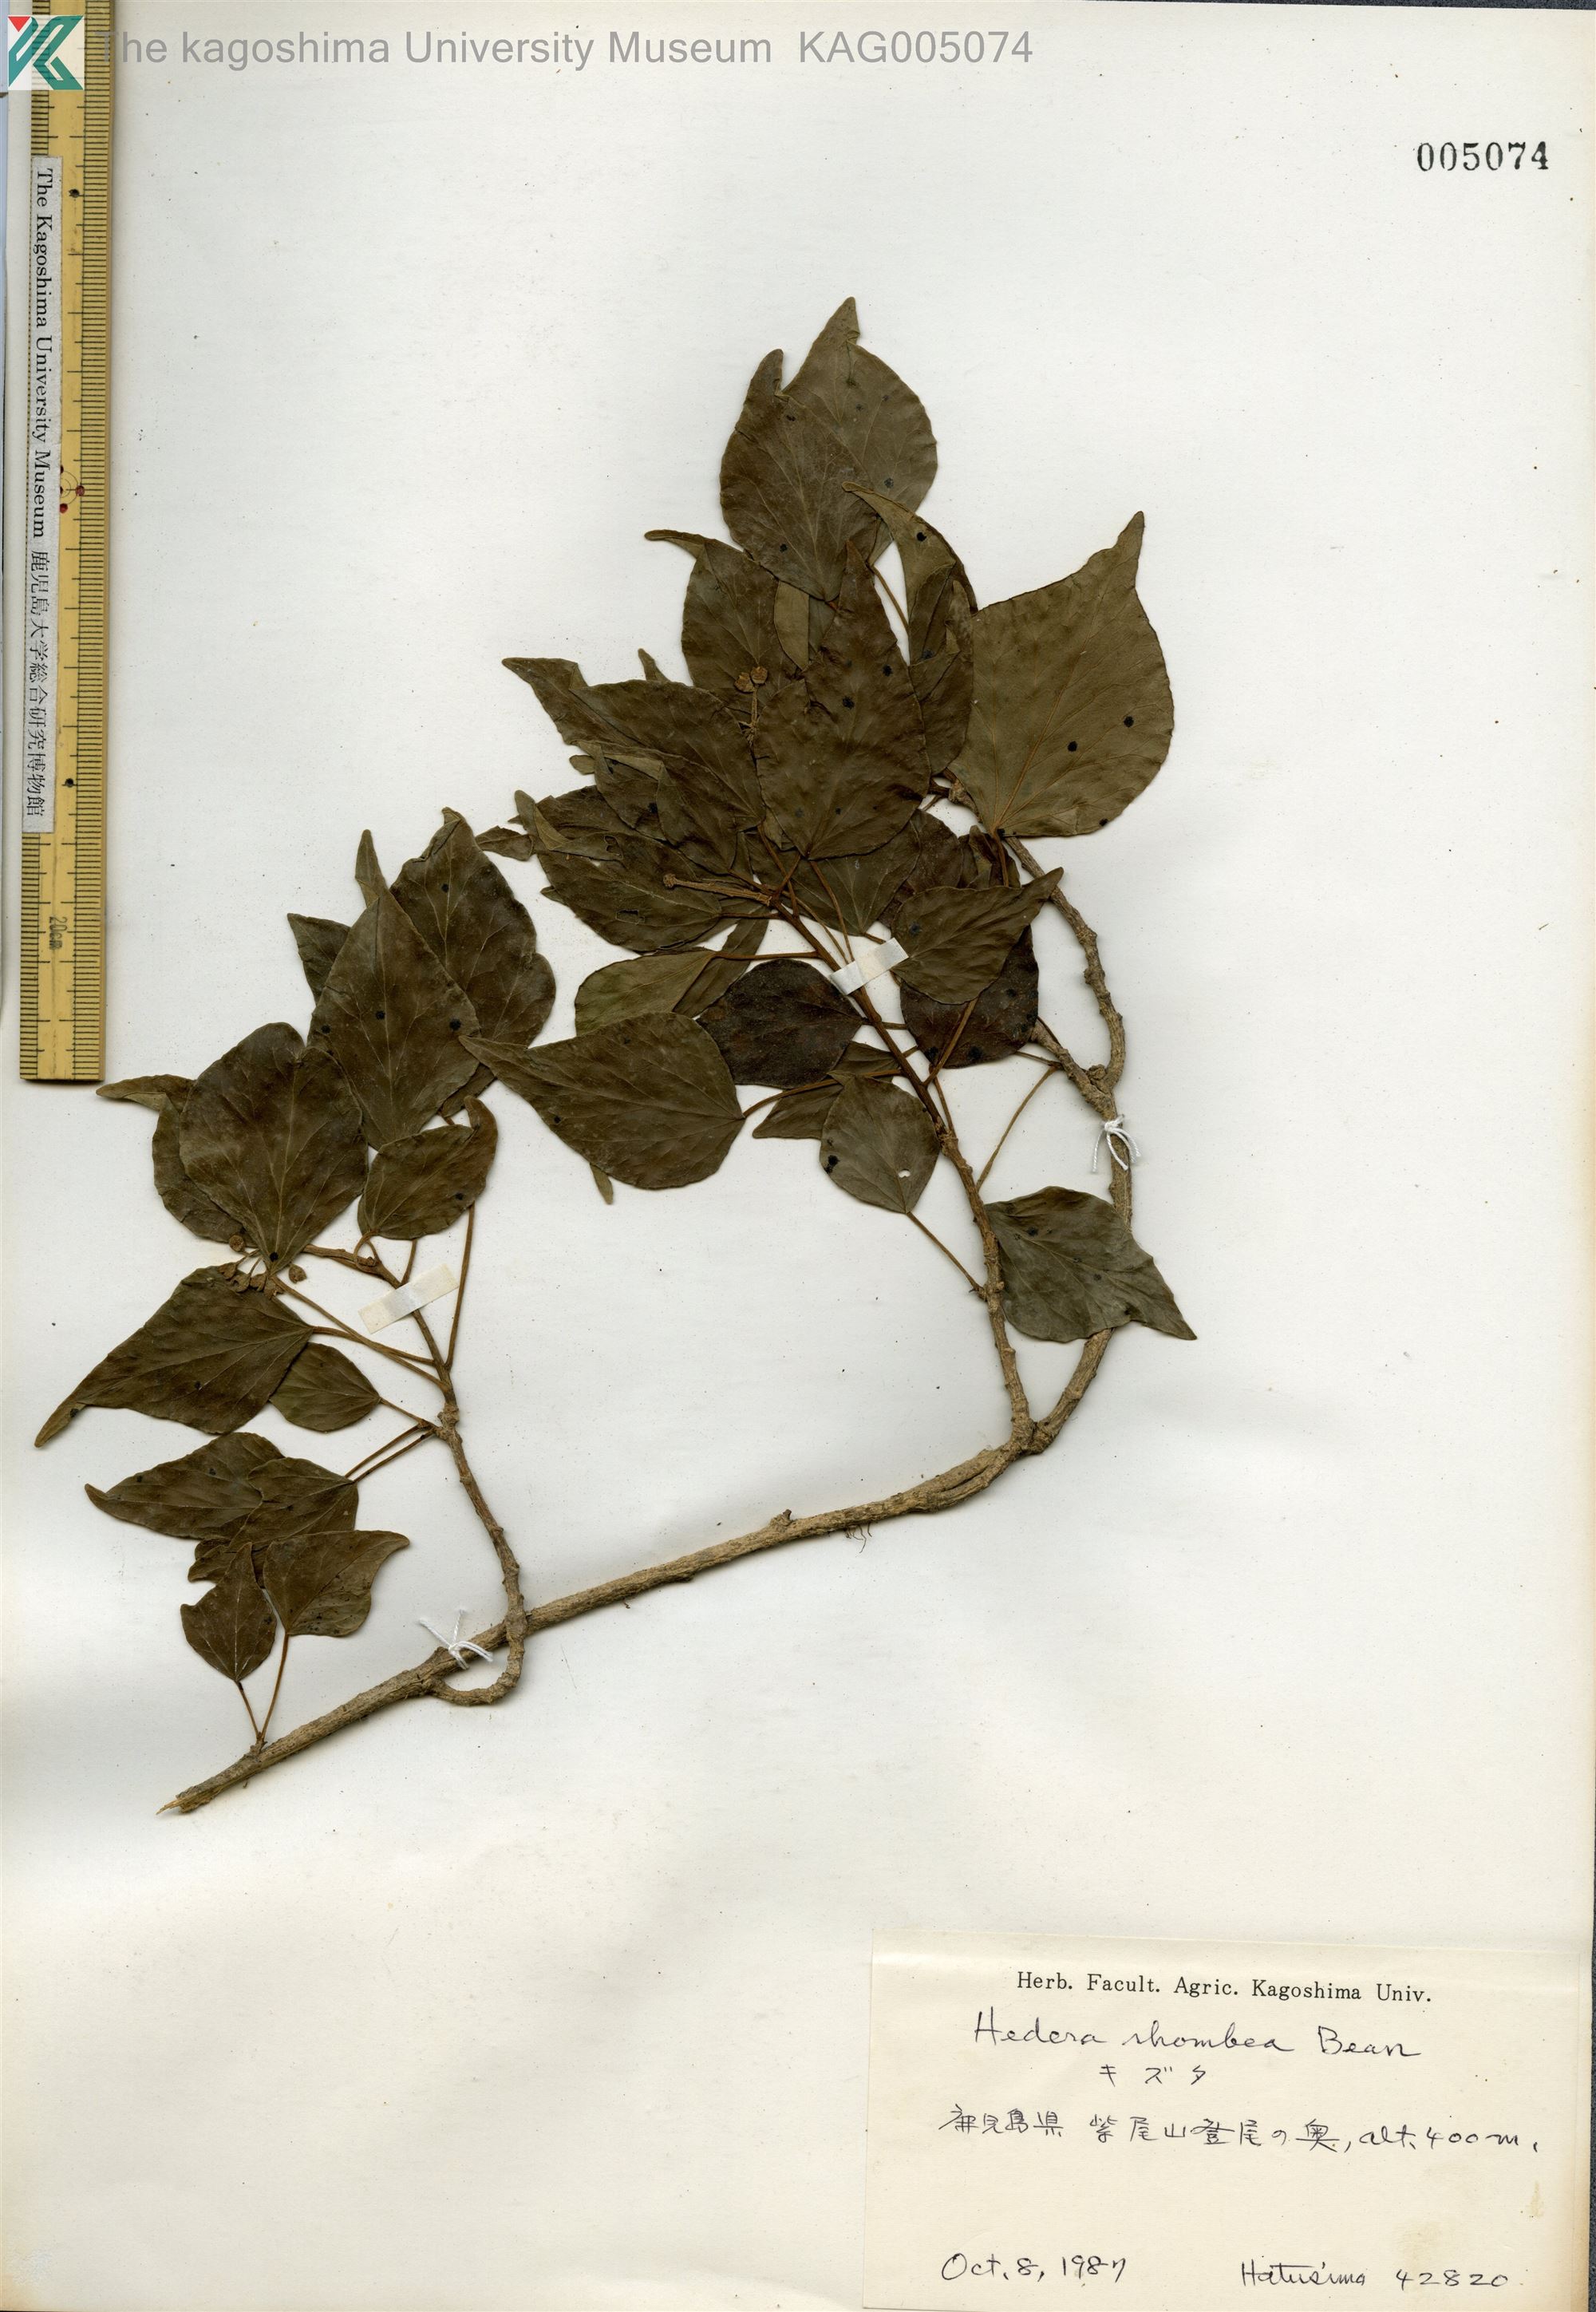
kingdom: Plantae
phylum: Tracheophyta
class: Magnoliopsida
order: Apiales
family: Araliaceae
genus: Hedera
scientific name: Hedera rhombea
